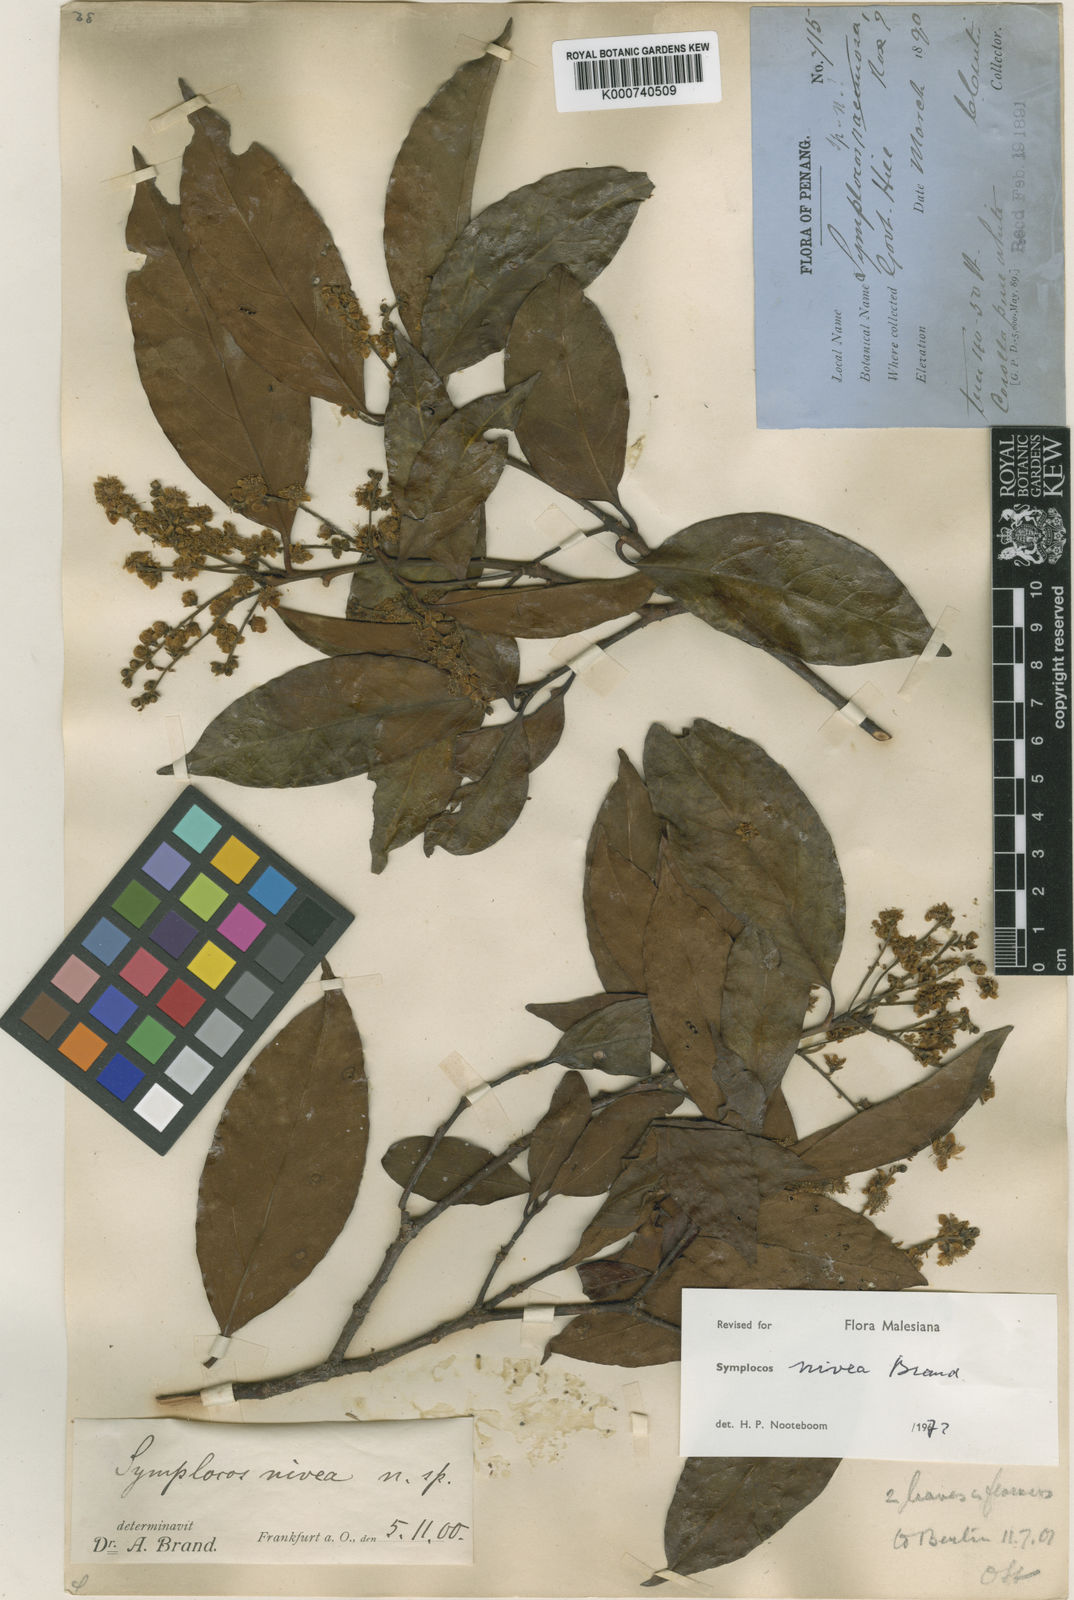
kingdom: Plantae
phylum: Tracheophyta
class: Magnoliopsida
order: Ericales
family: Symplocaceae
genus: Symplocos
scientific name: Symplocos nivea
